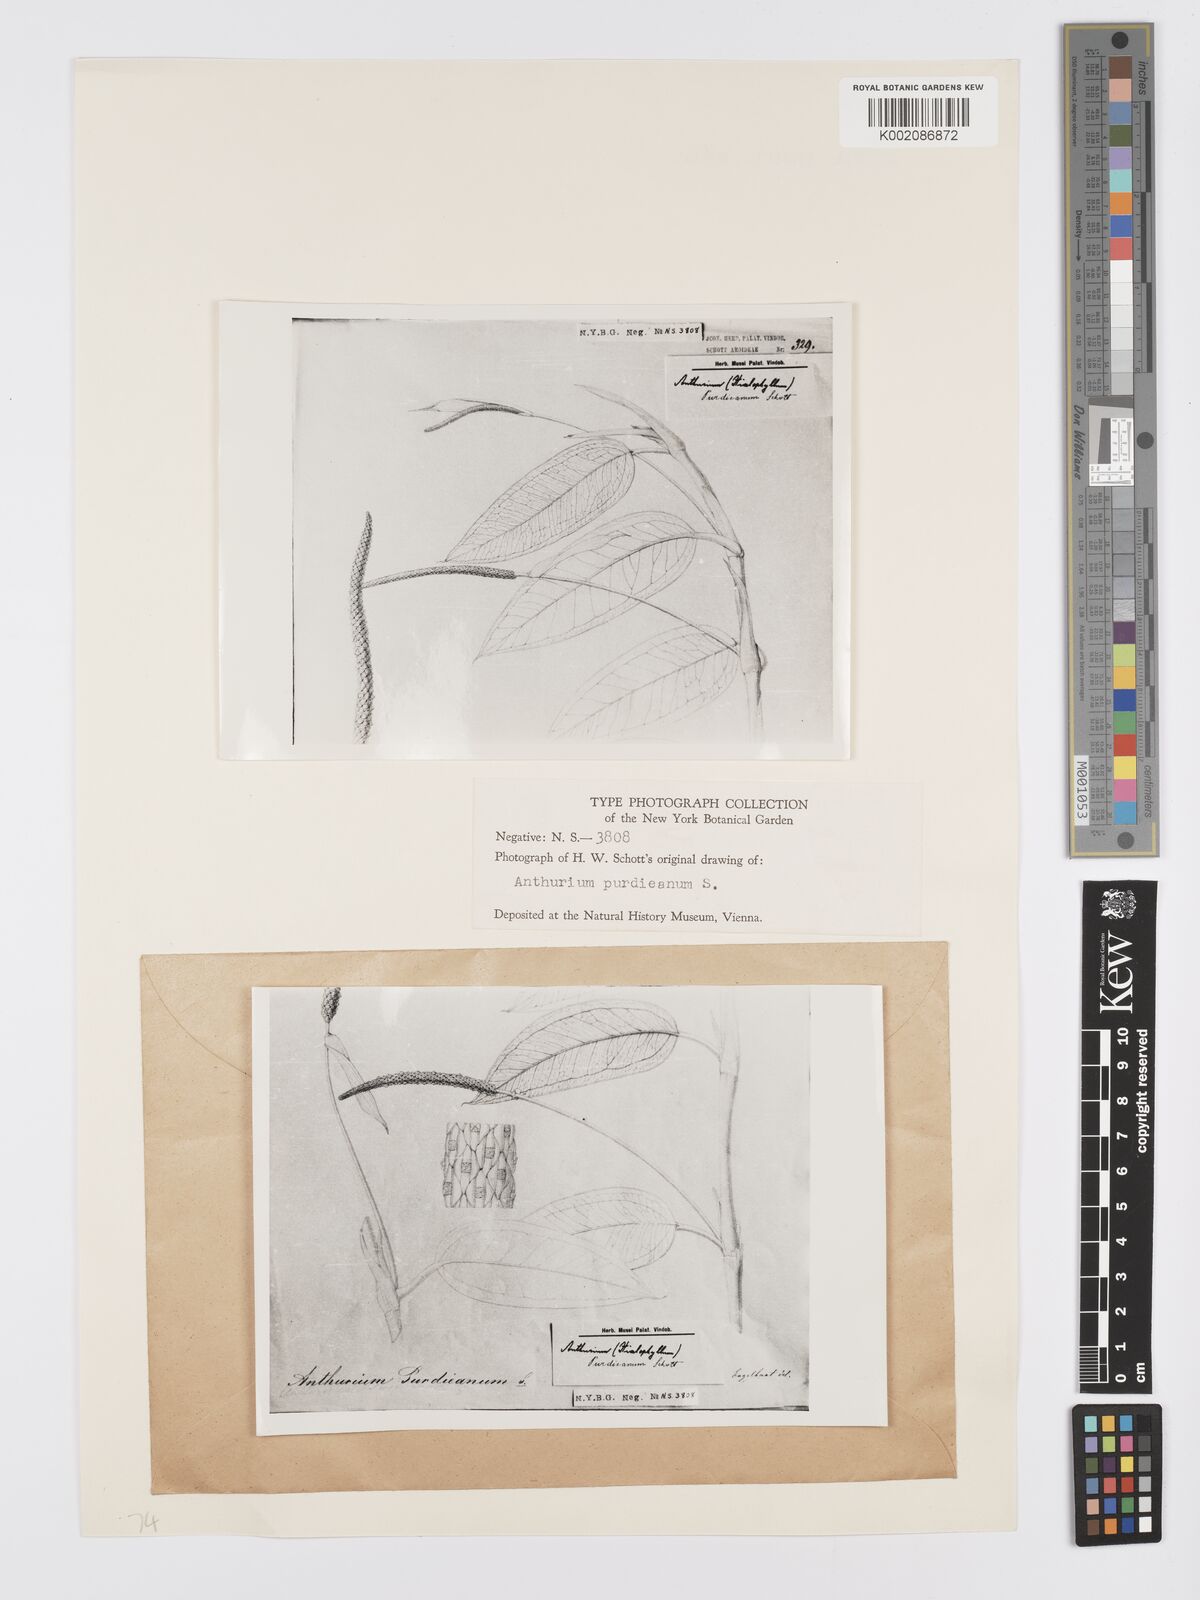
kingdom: Plantae
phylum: Tracheophyta
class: Liliopsida
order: Alismatales
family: Araceae
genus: Anthurium
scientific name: Anthurium purdieanum
